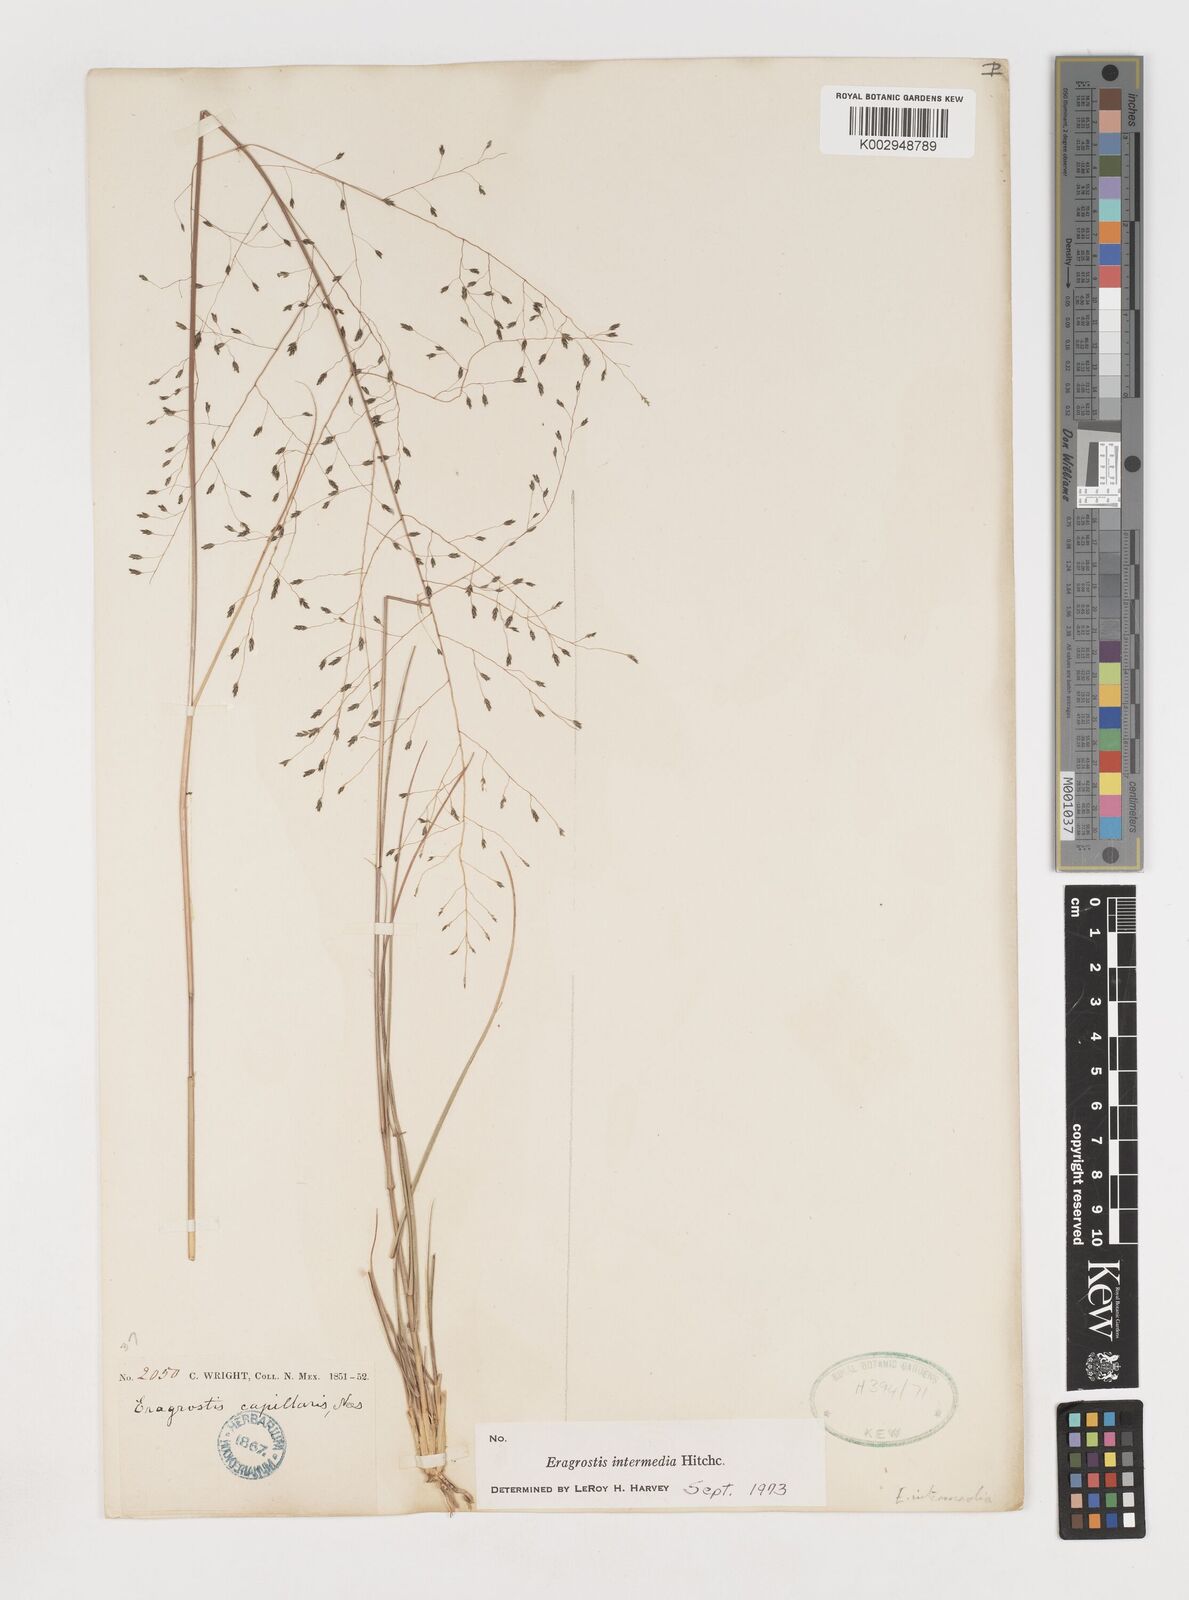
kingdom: Plantae
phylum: Tracheophyta
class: Liliopsida
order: Poales
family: Poaceae
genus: Eragrostis
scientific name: Eragrostis intermedia
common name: Plains love grass
